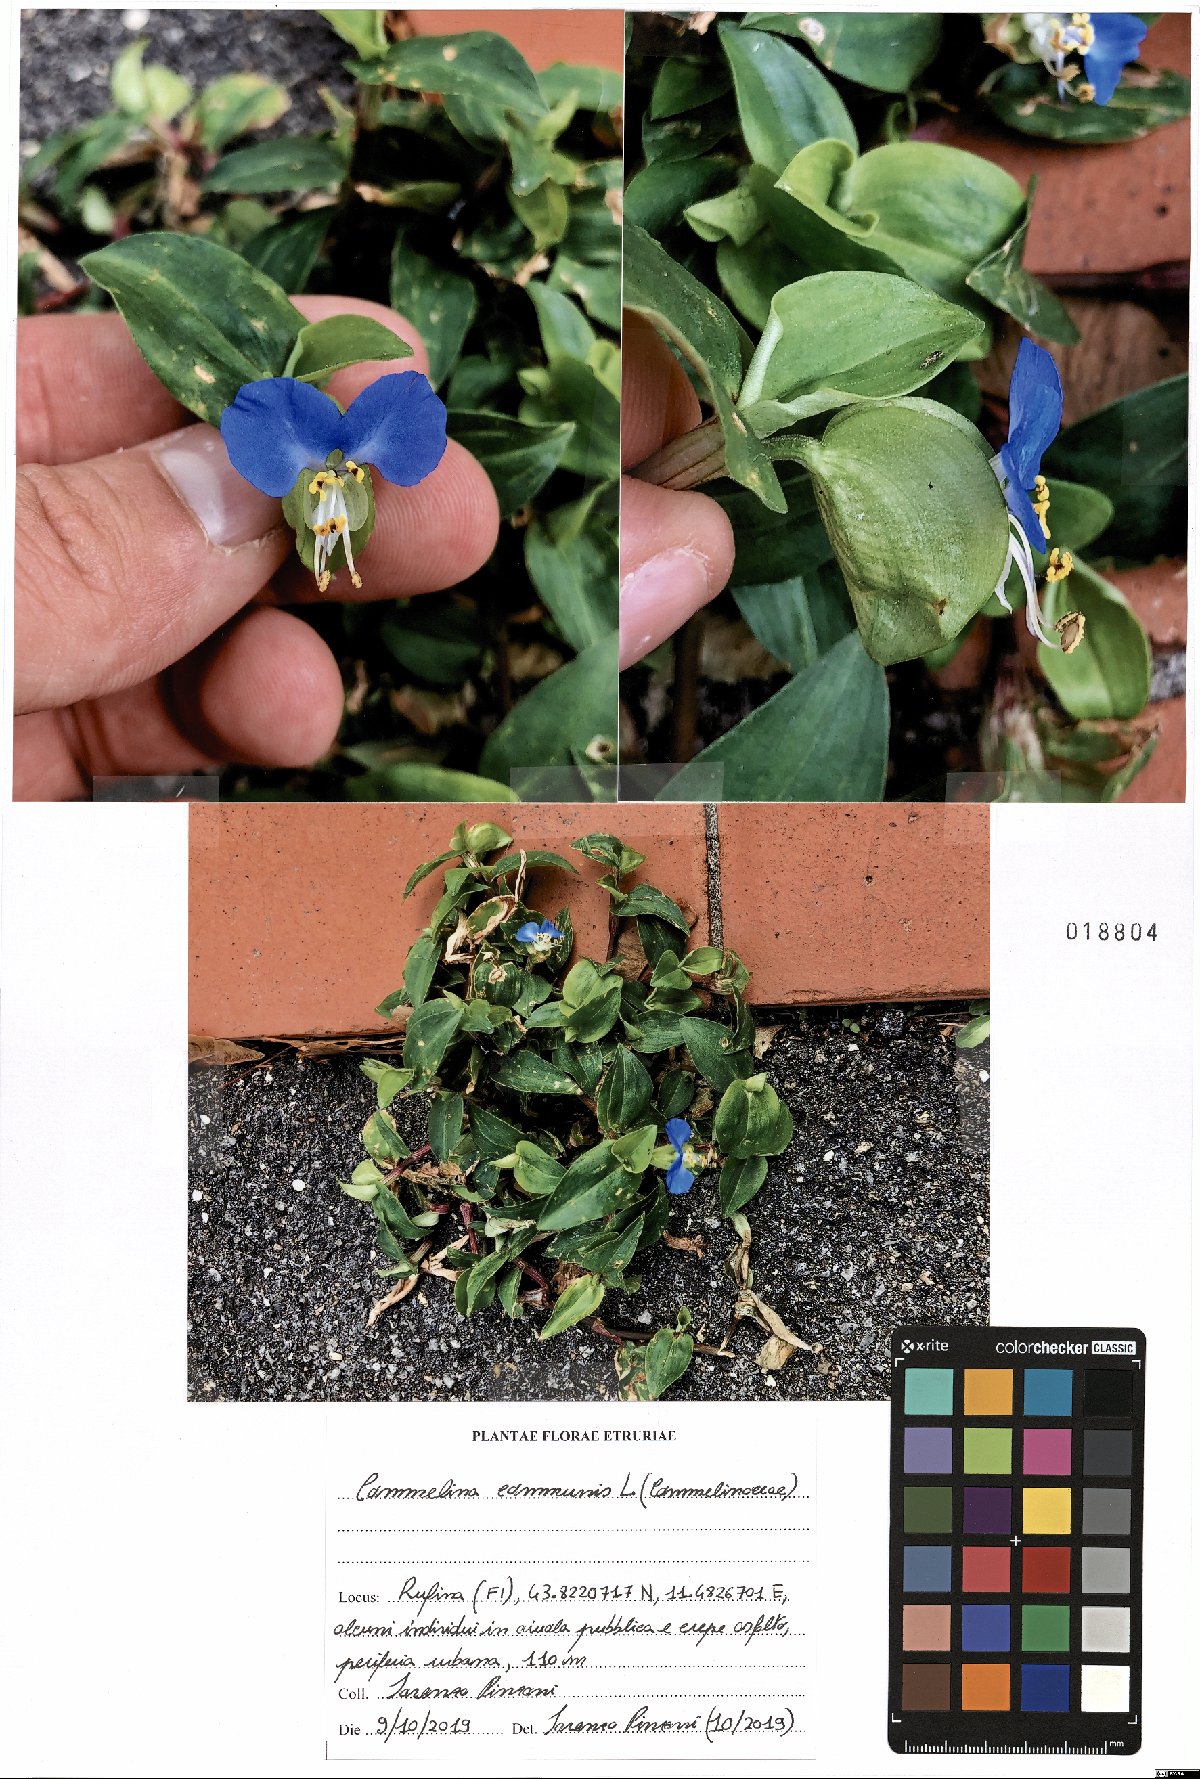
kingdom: Plantae
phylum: Tracheophyta
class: Liliopsida
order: Commelinales
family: Commelinaceae
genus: Commelina
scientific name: Commelina communis
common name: Asiatic dayflower
